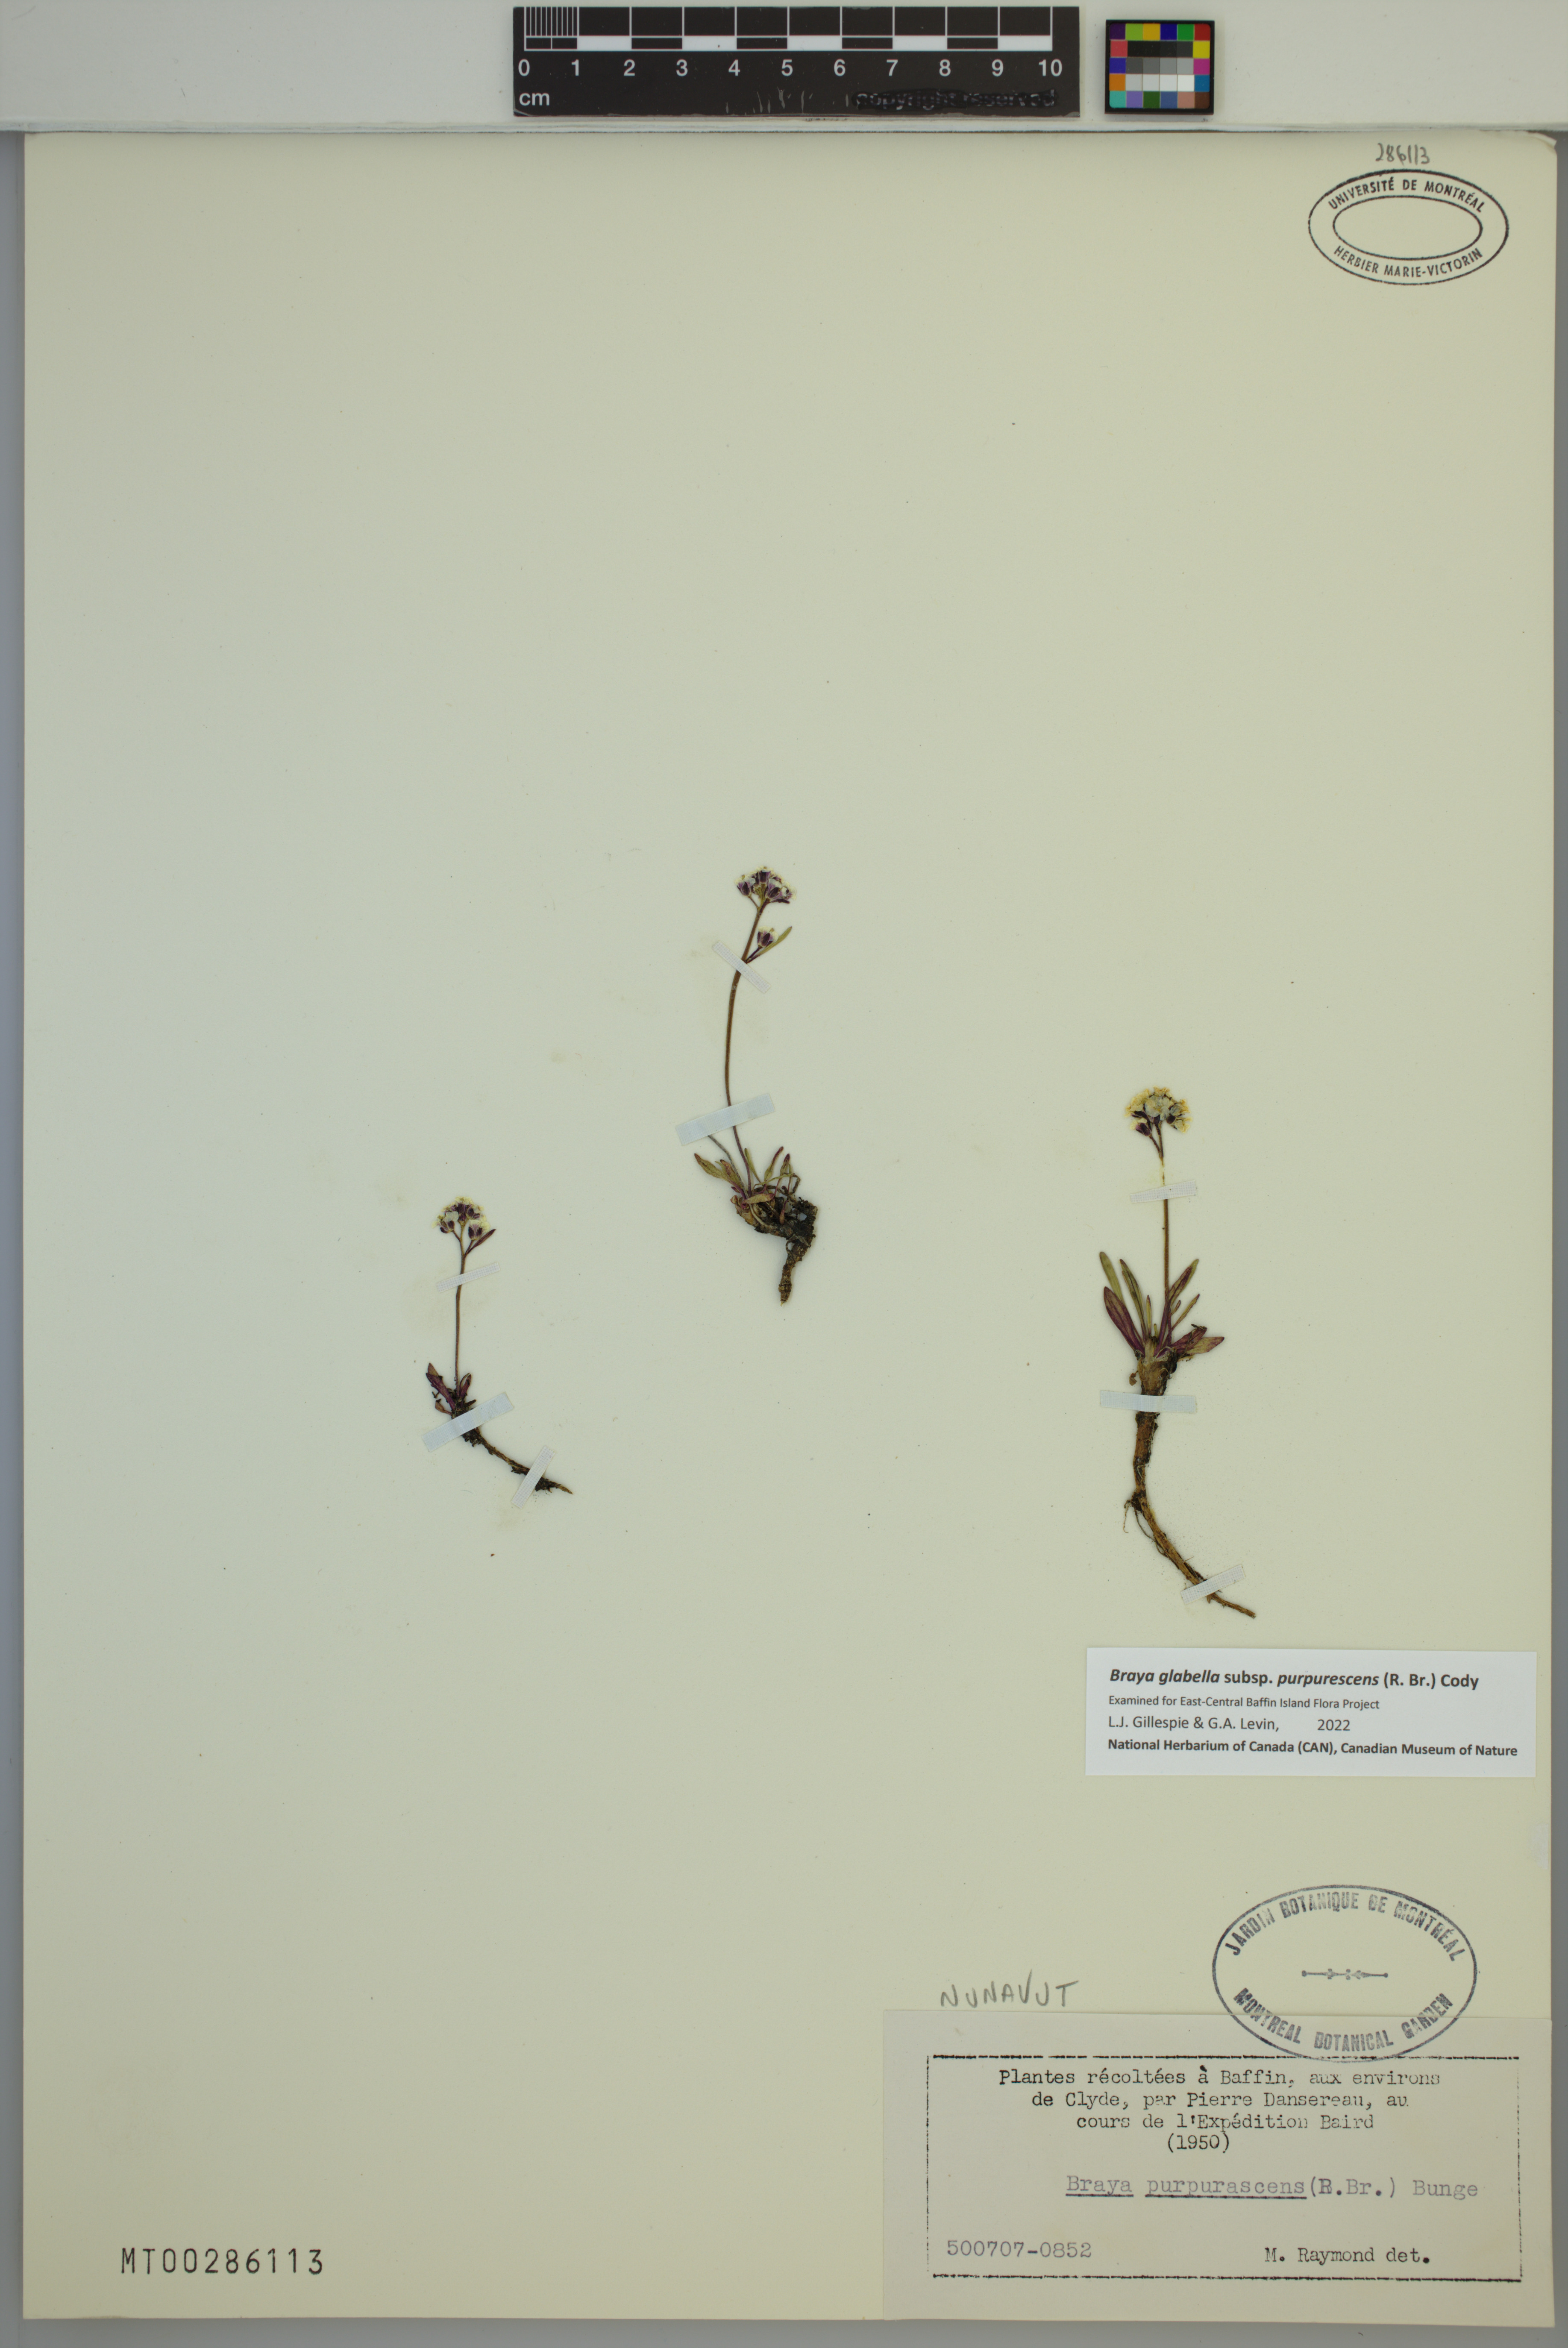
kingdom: Plantae
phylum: Tracheophyta
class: Magnoliopsida
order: Brassicales
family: Brassicaceae
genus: Braya
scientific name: Braya purpurascens
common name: Alpine braya
